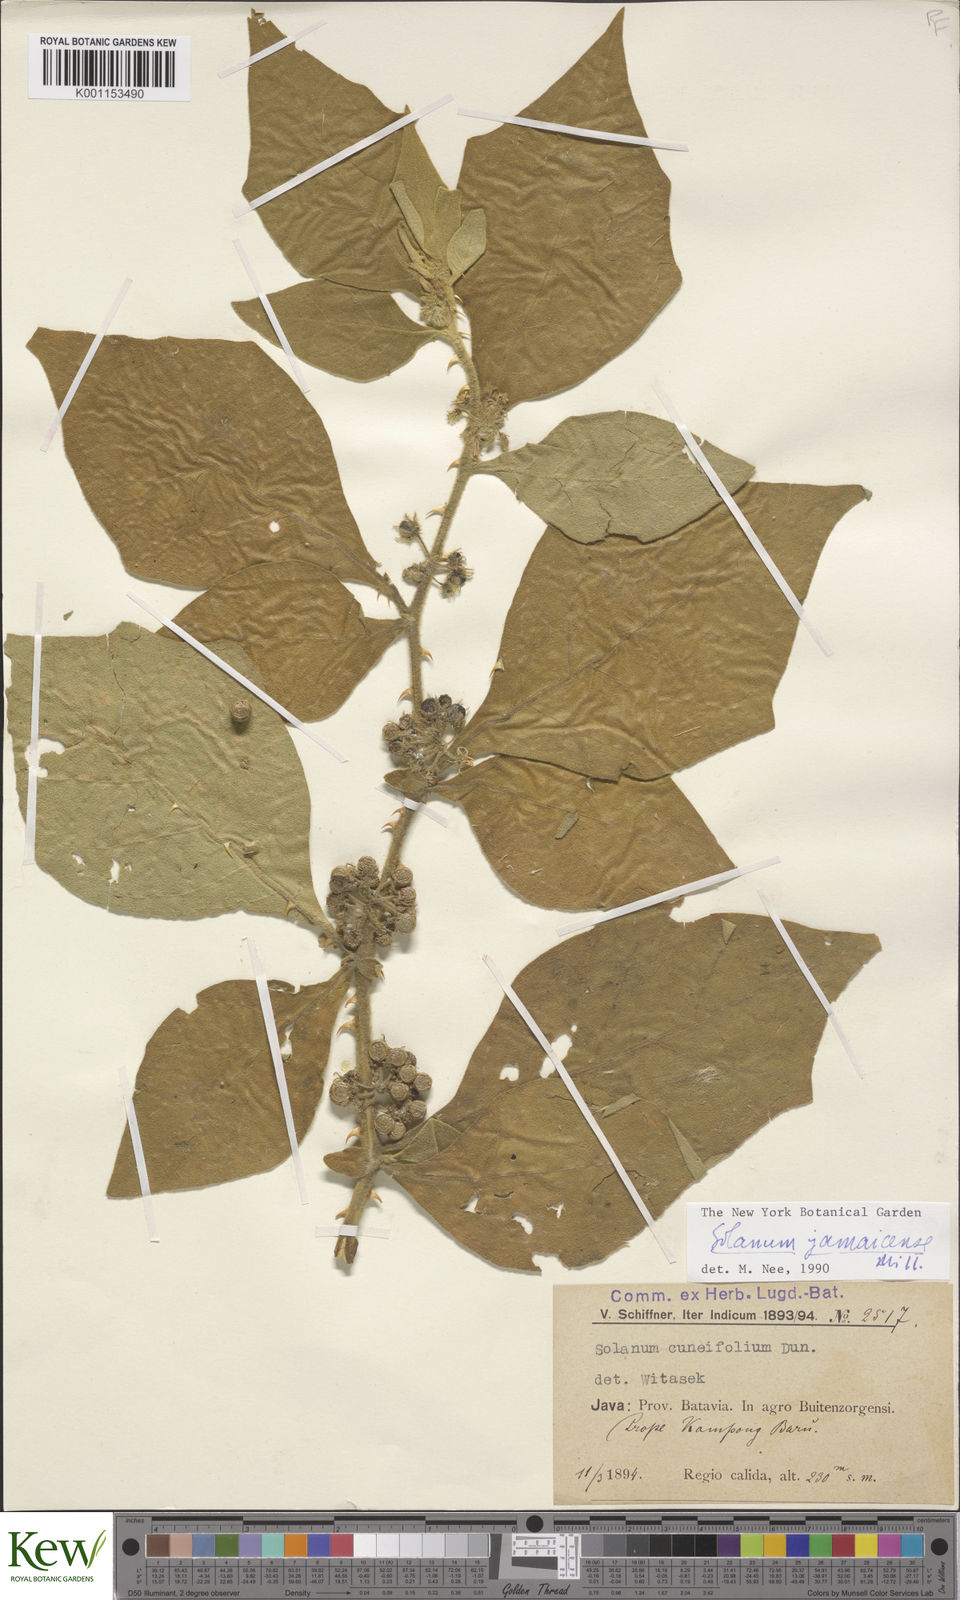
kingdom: Plantae
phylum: Tracheophyta
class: Magnoliopsida
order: Solanales
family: Solanaceae
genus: Solanum
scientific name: Solanum jamaicense
